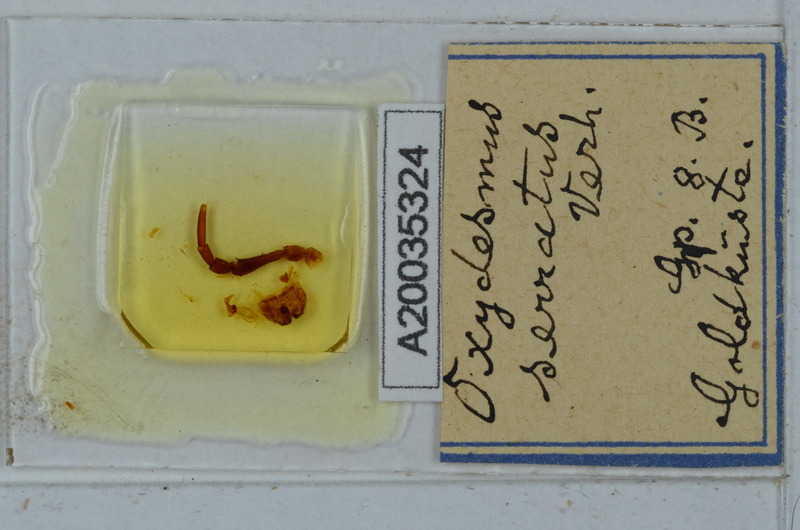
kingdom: Animalia
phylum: Arthropoda
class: Diplopoda
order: Polydesmida
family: Oxydesmidae
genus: Oxydesmus
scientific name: Oxydesmus
